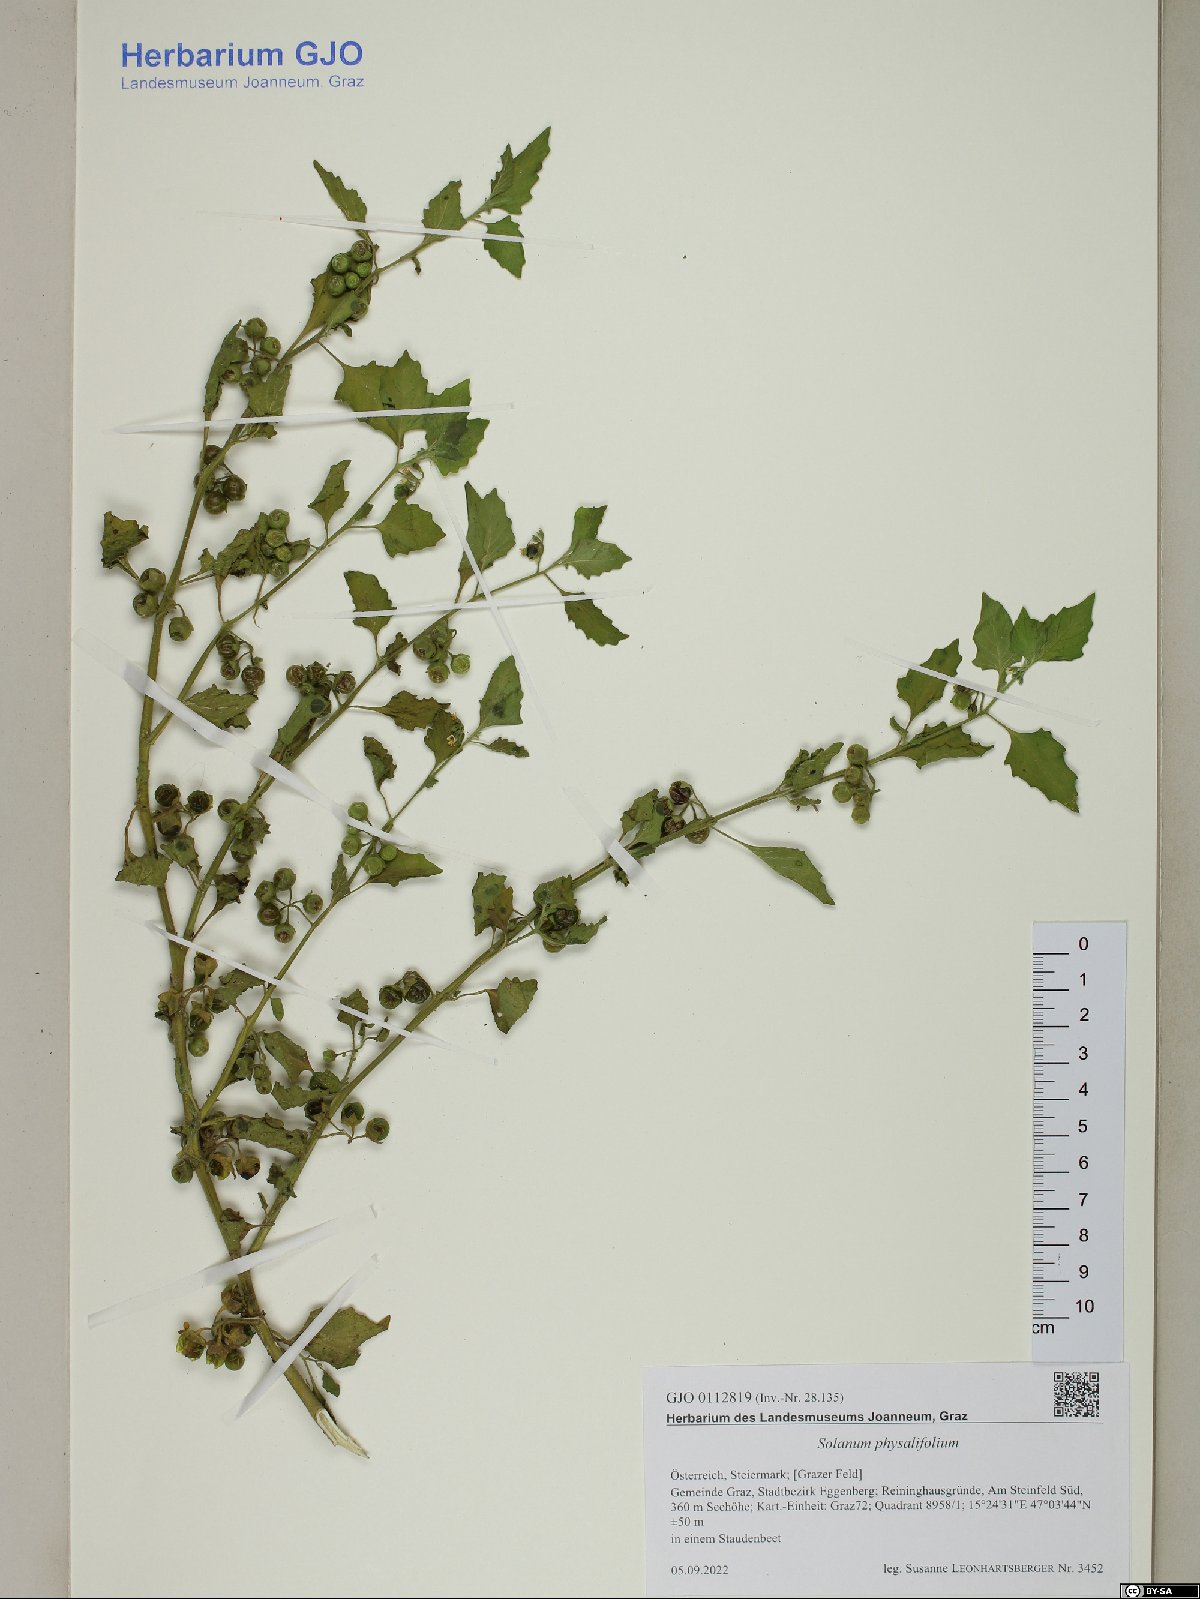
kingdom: Plantae
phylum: Tracheophyta
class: Magnoliopsida
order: Solanales
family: Solanaceae
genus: Solanum
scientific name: Solanum physalifolium
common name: Green nightshade
